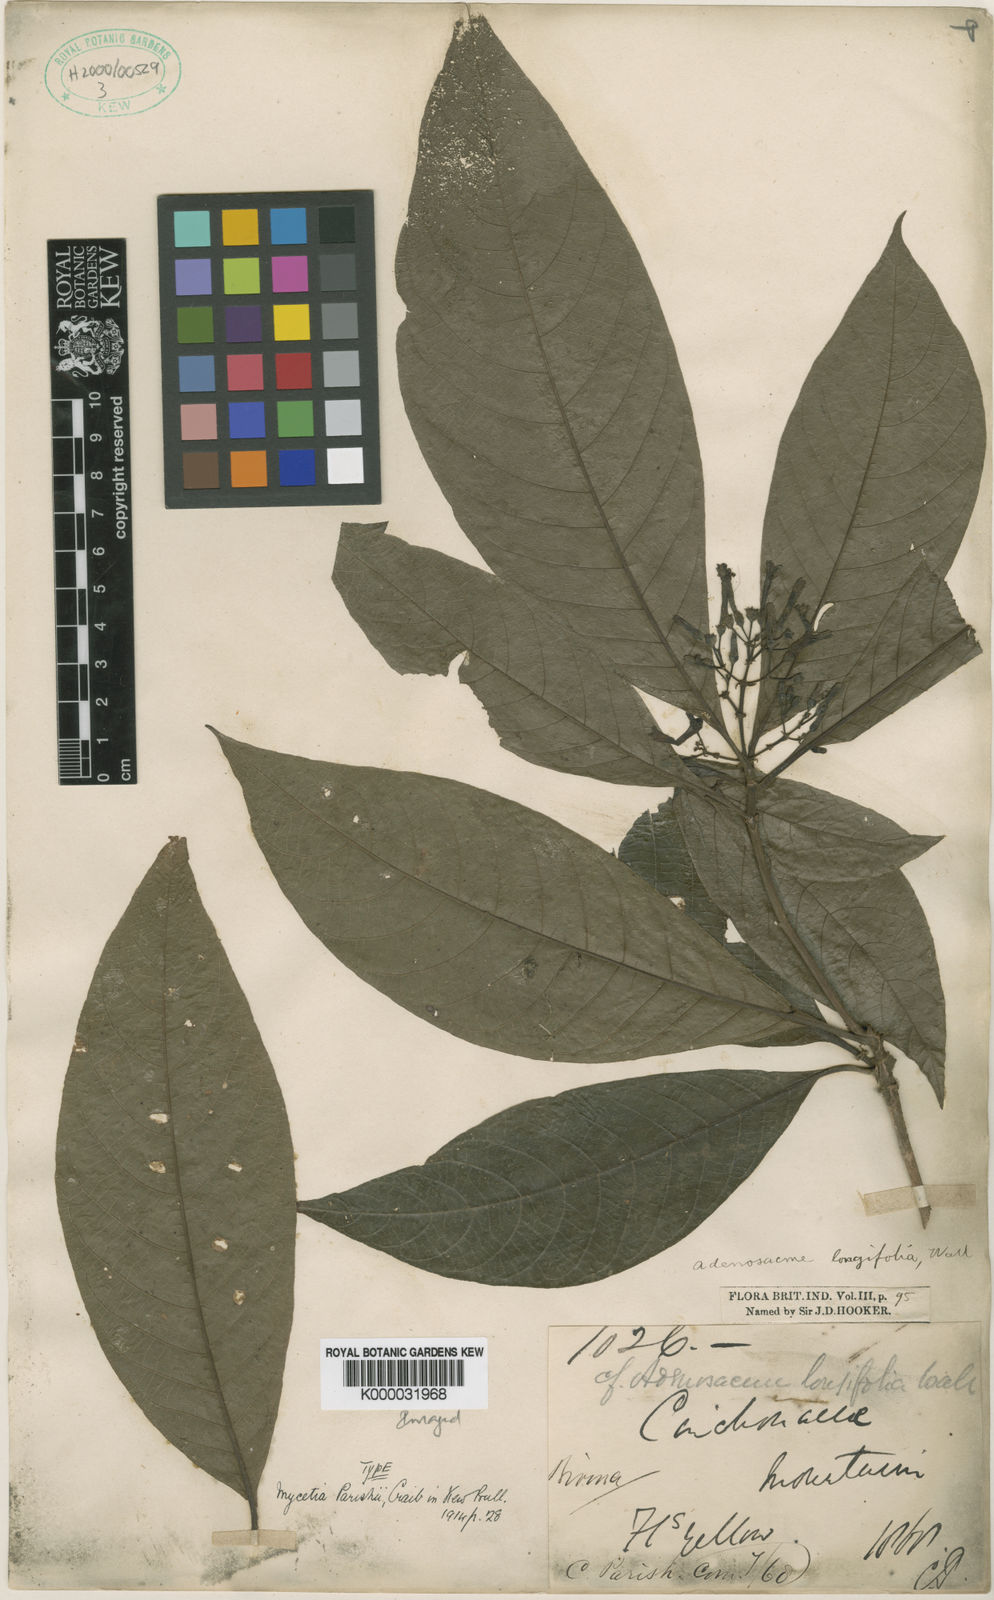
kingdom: Plantae
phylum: Tracheophyta
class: Magnoliopsida
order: Gentianales
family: Rubiaceae
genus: Mycetia
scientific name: Mycetia parishii
